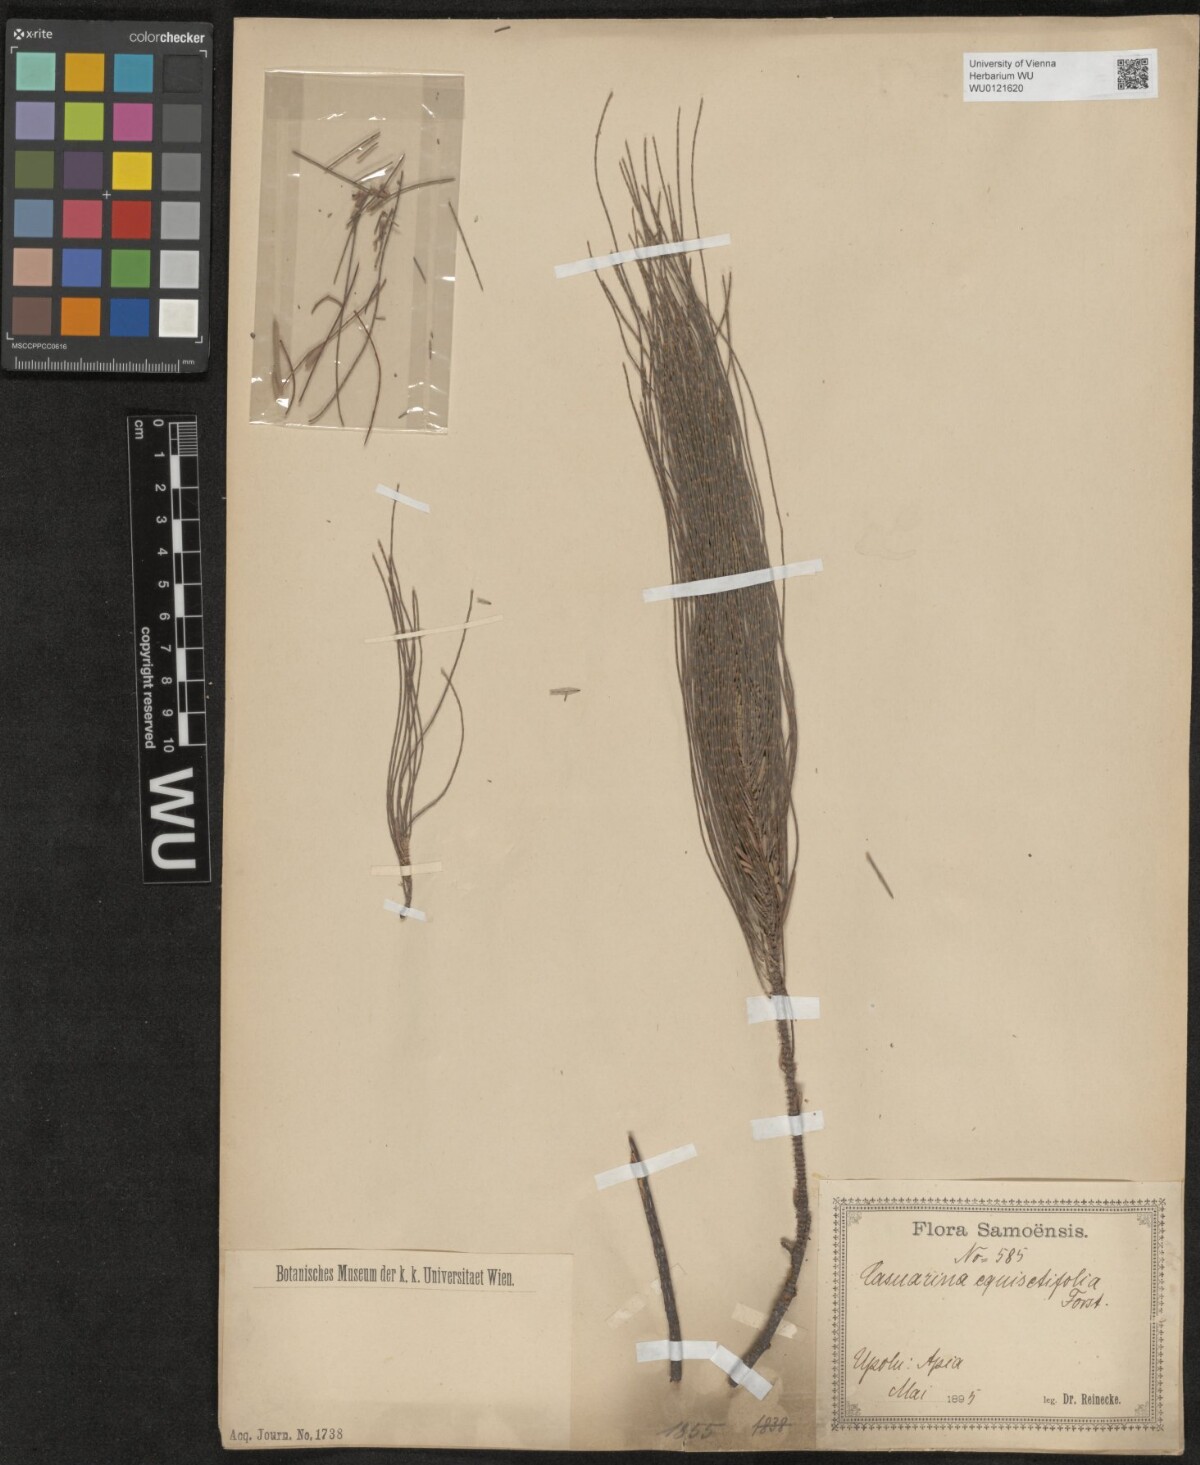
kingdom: Plantae
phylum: Tracheophyta
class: Magnoliopsida
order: Fagales
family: Casuarinaceae
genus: Casuarina
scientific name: Casuarina equisetifolia
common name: Beach sheoak
